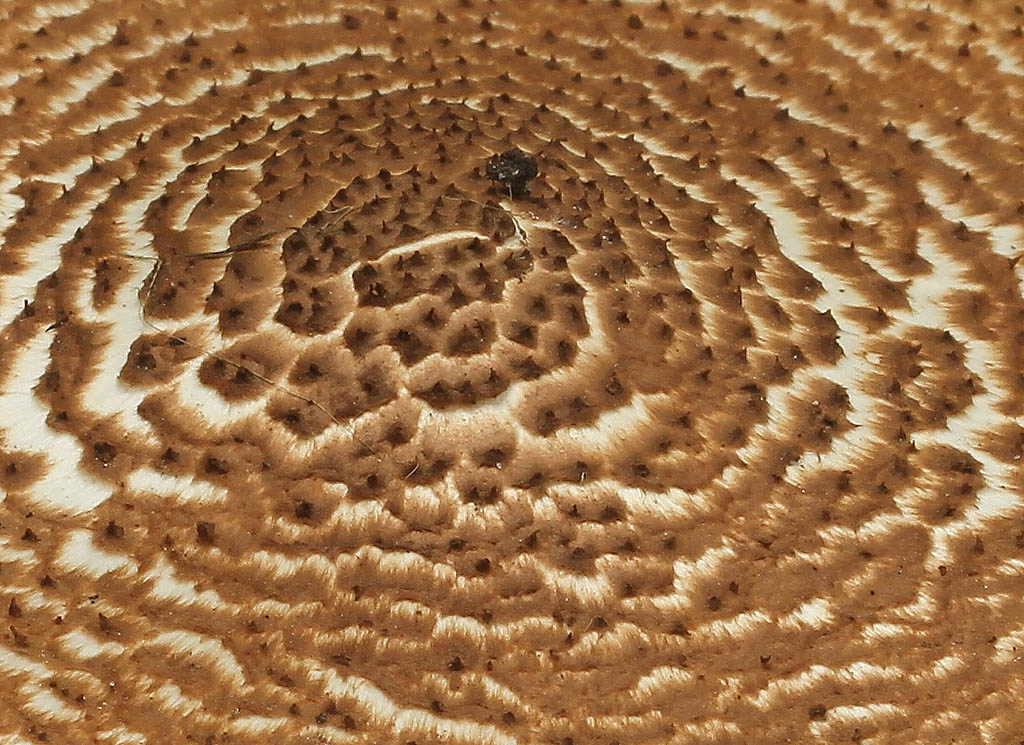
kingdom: Fungi
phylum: Basidiomycota
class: Agaricomycetes
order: Agaricales
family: Agaricaceae
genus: Echinoderma
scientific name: Echinoderma asperum
